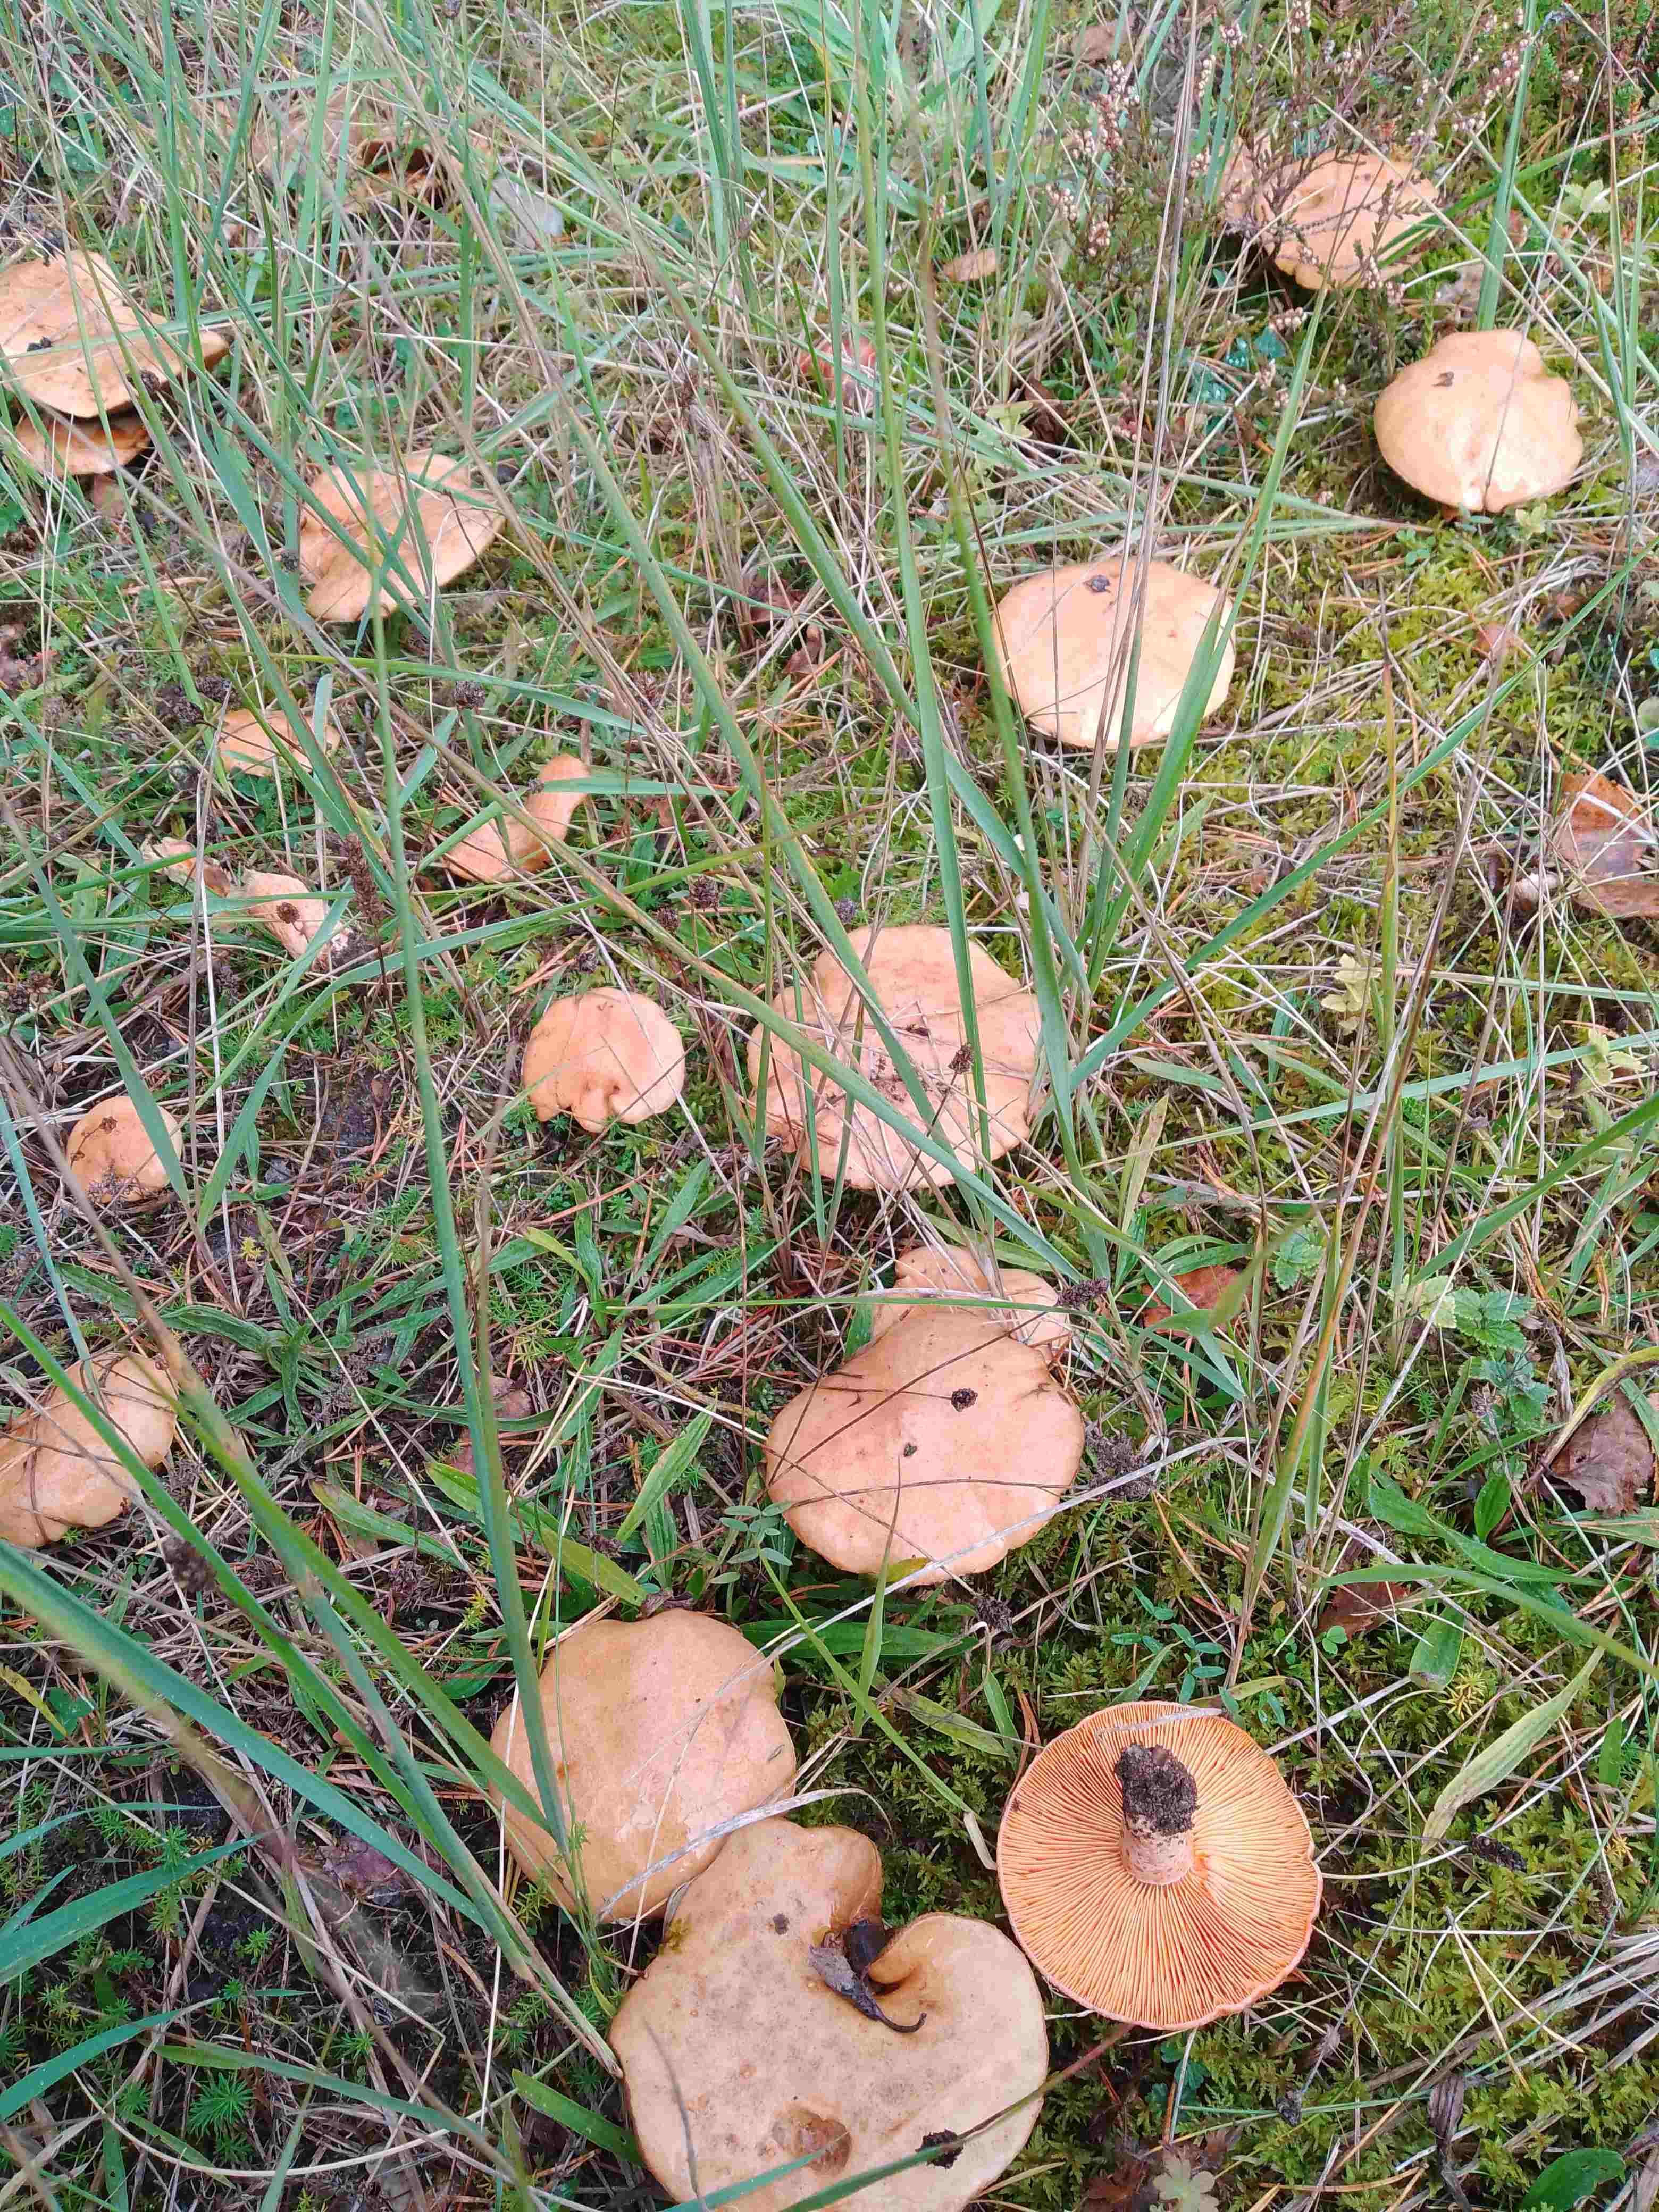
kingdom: Fungi
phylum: Basidiomycota
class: Agaricomycetes
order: Russulales
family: Russulaceae
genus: Lactarius
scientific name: Lactarius deliciosus
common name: velsmagende mælkehat
